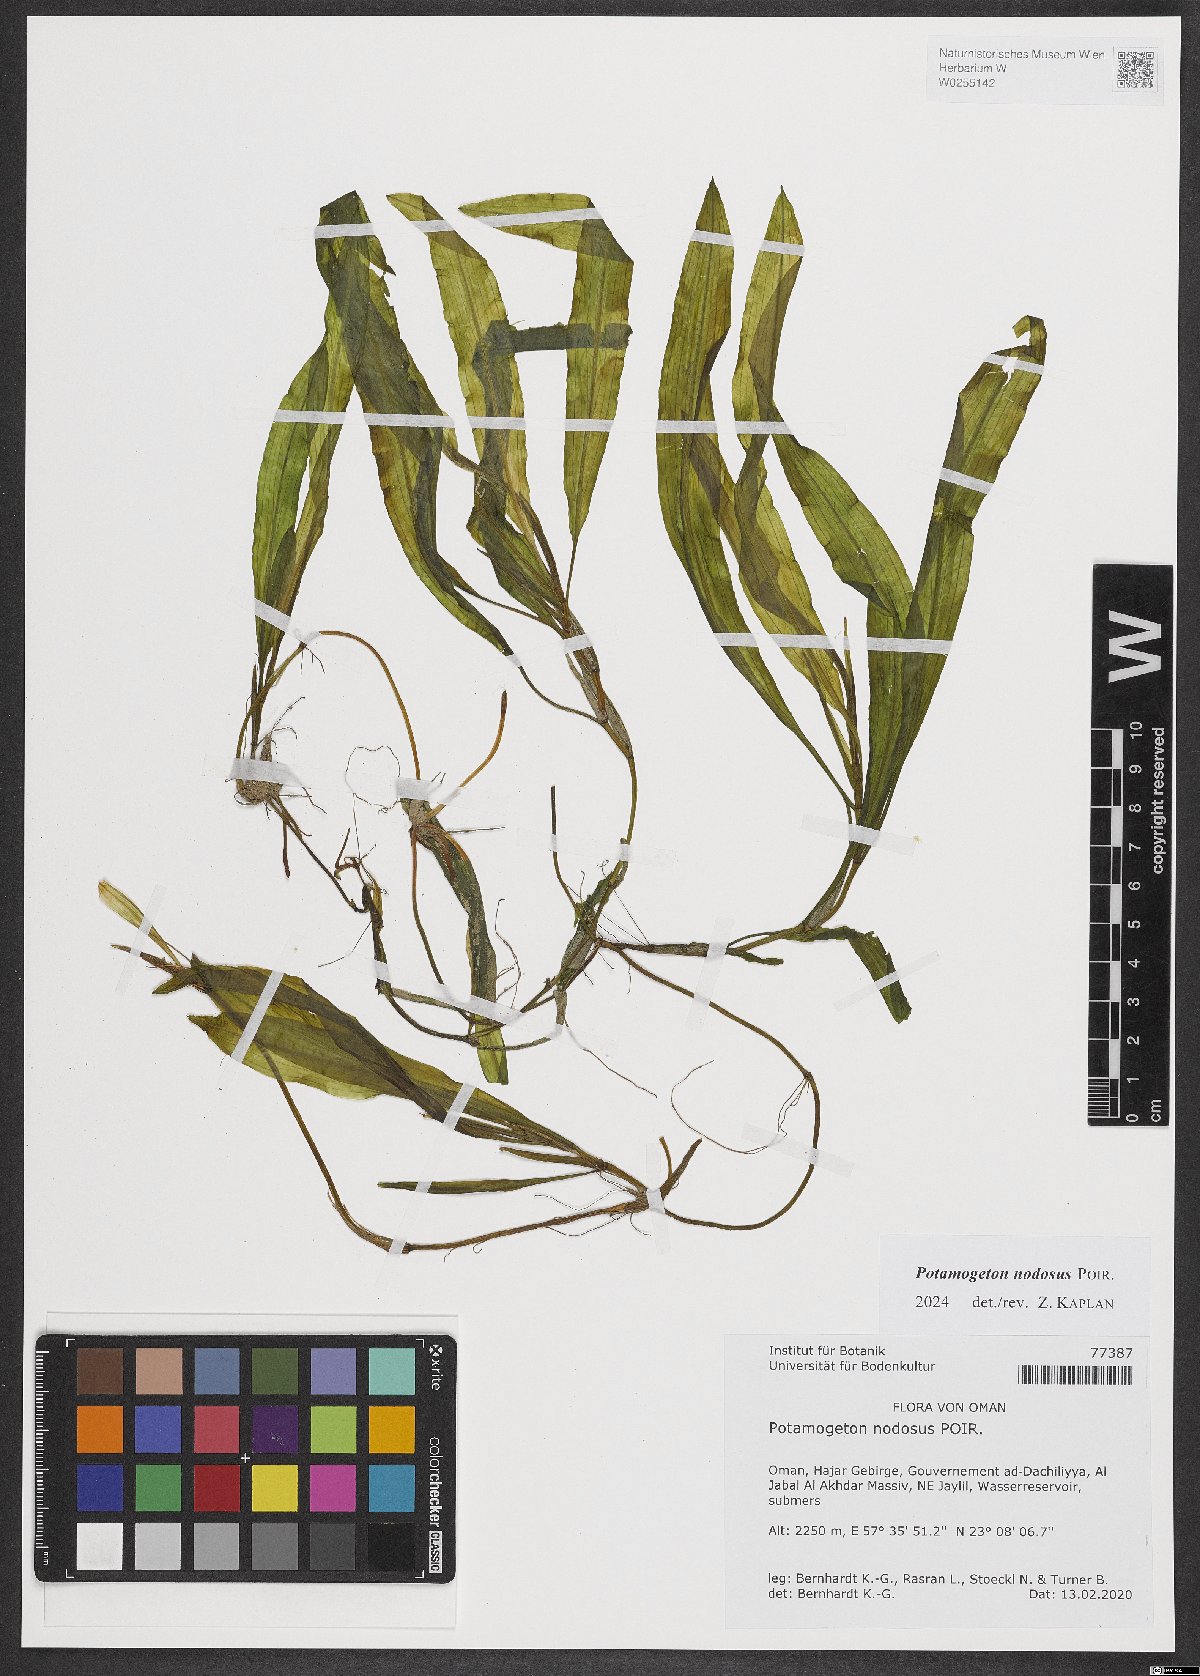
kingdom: Plantae
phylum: Tracheophyta
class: Liliopsida
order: Alismatales
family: Potamogetonaceae
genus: Potamogeton
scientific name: Potamogeton nodosus
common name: Loddon pondweed
